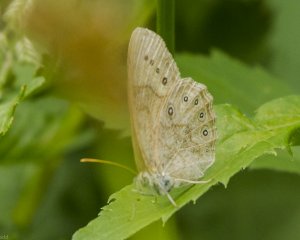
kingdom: Animalia
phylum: Arthropoda
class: Insecta
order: Lepidoptera
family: Nymphalidae
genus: Lethe
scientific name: Lethe eurydice
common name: Eyed Brown
